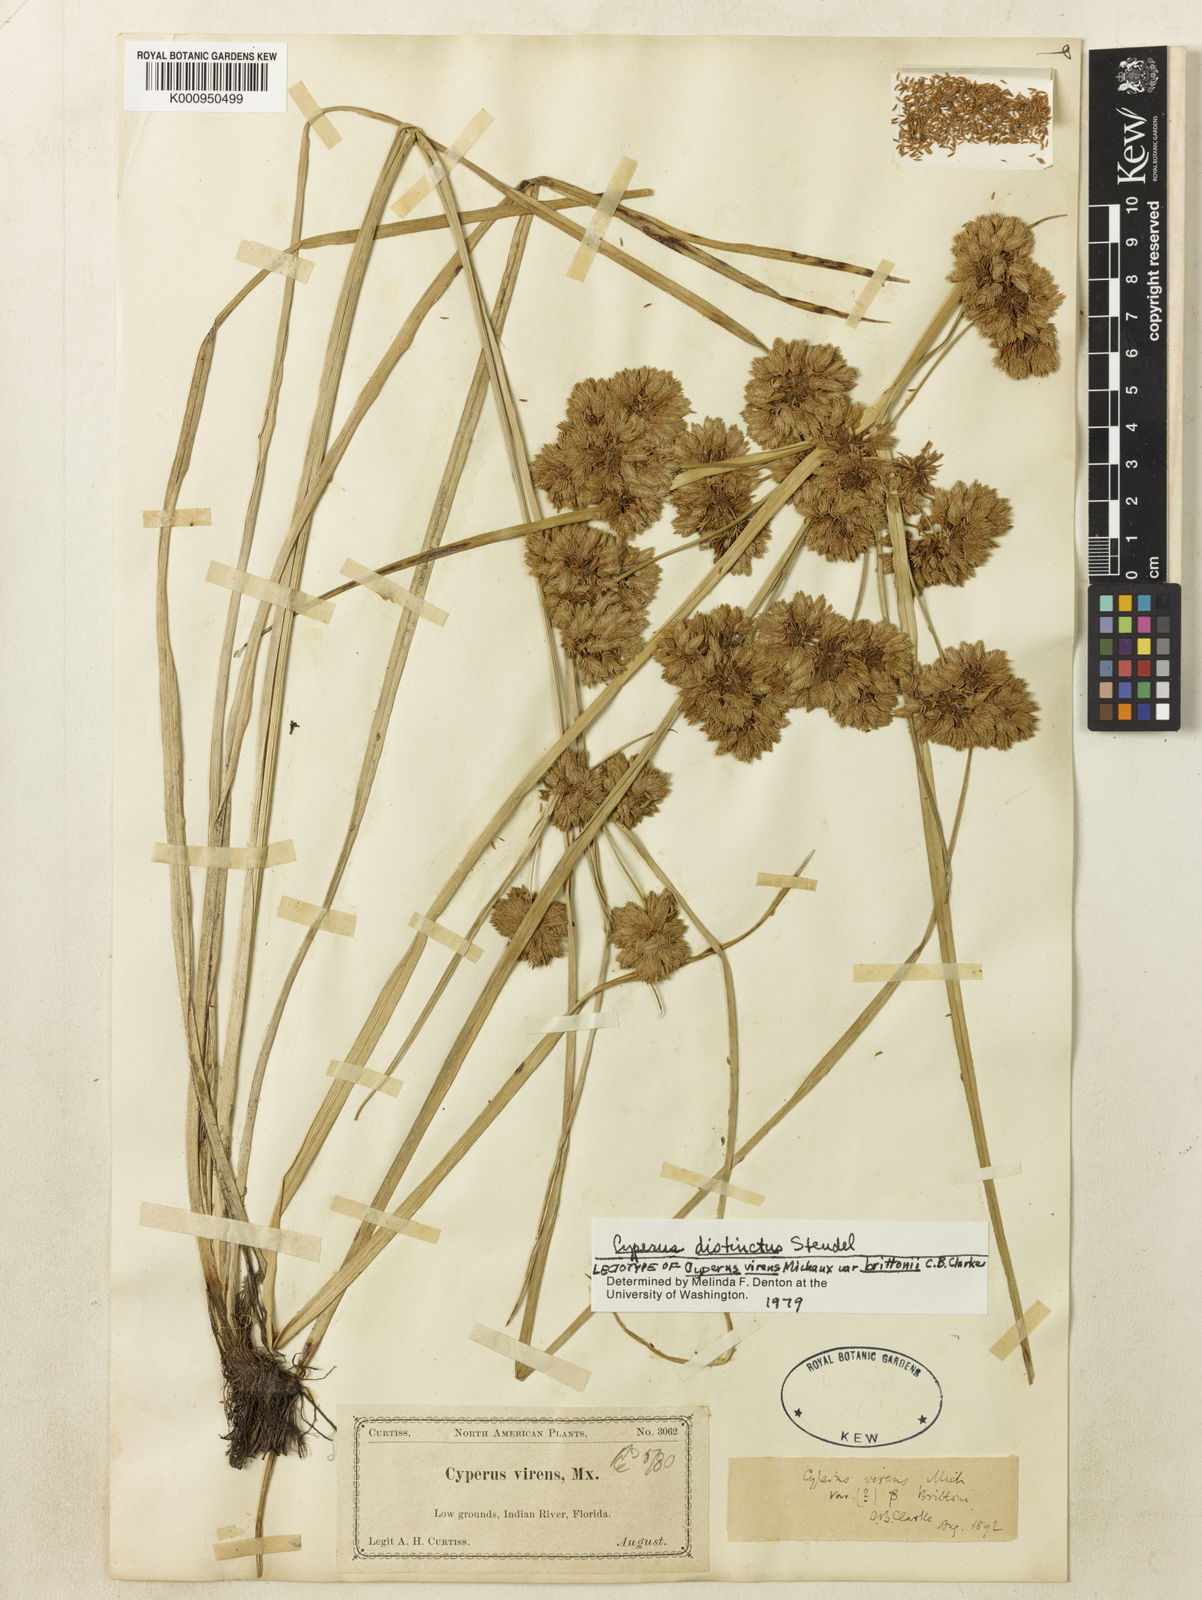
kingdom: Plantae
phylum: Tracheophyta
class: Liliopsida
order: Poales
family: Cyperaceae
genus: Cyperus
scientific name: Cyperus distinctus
